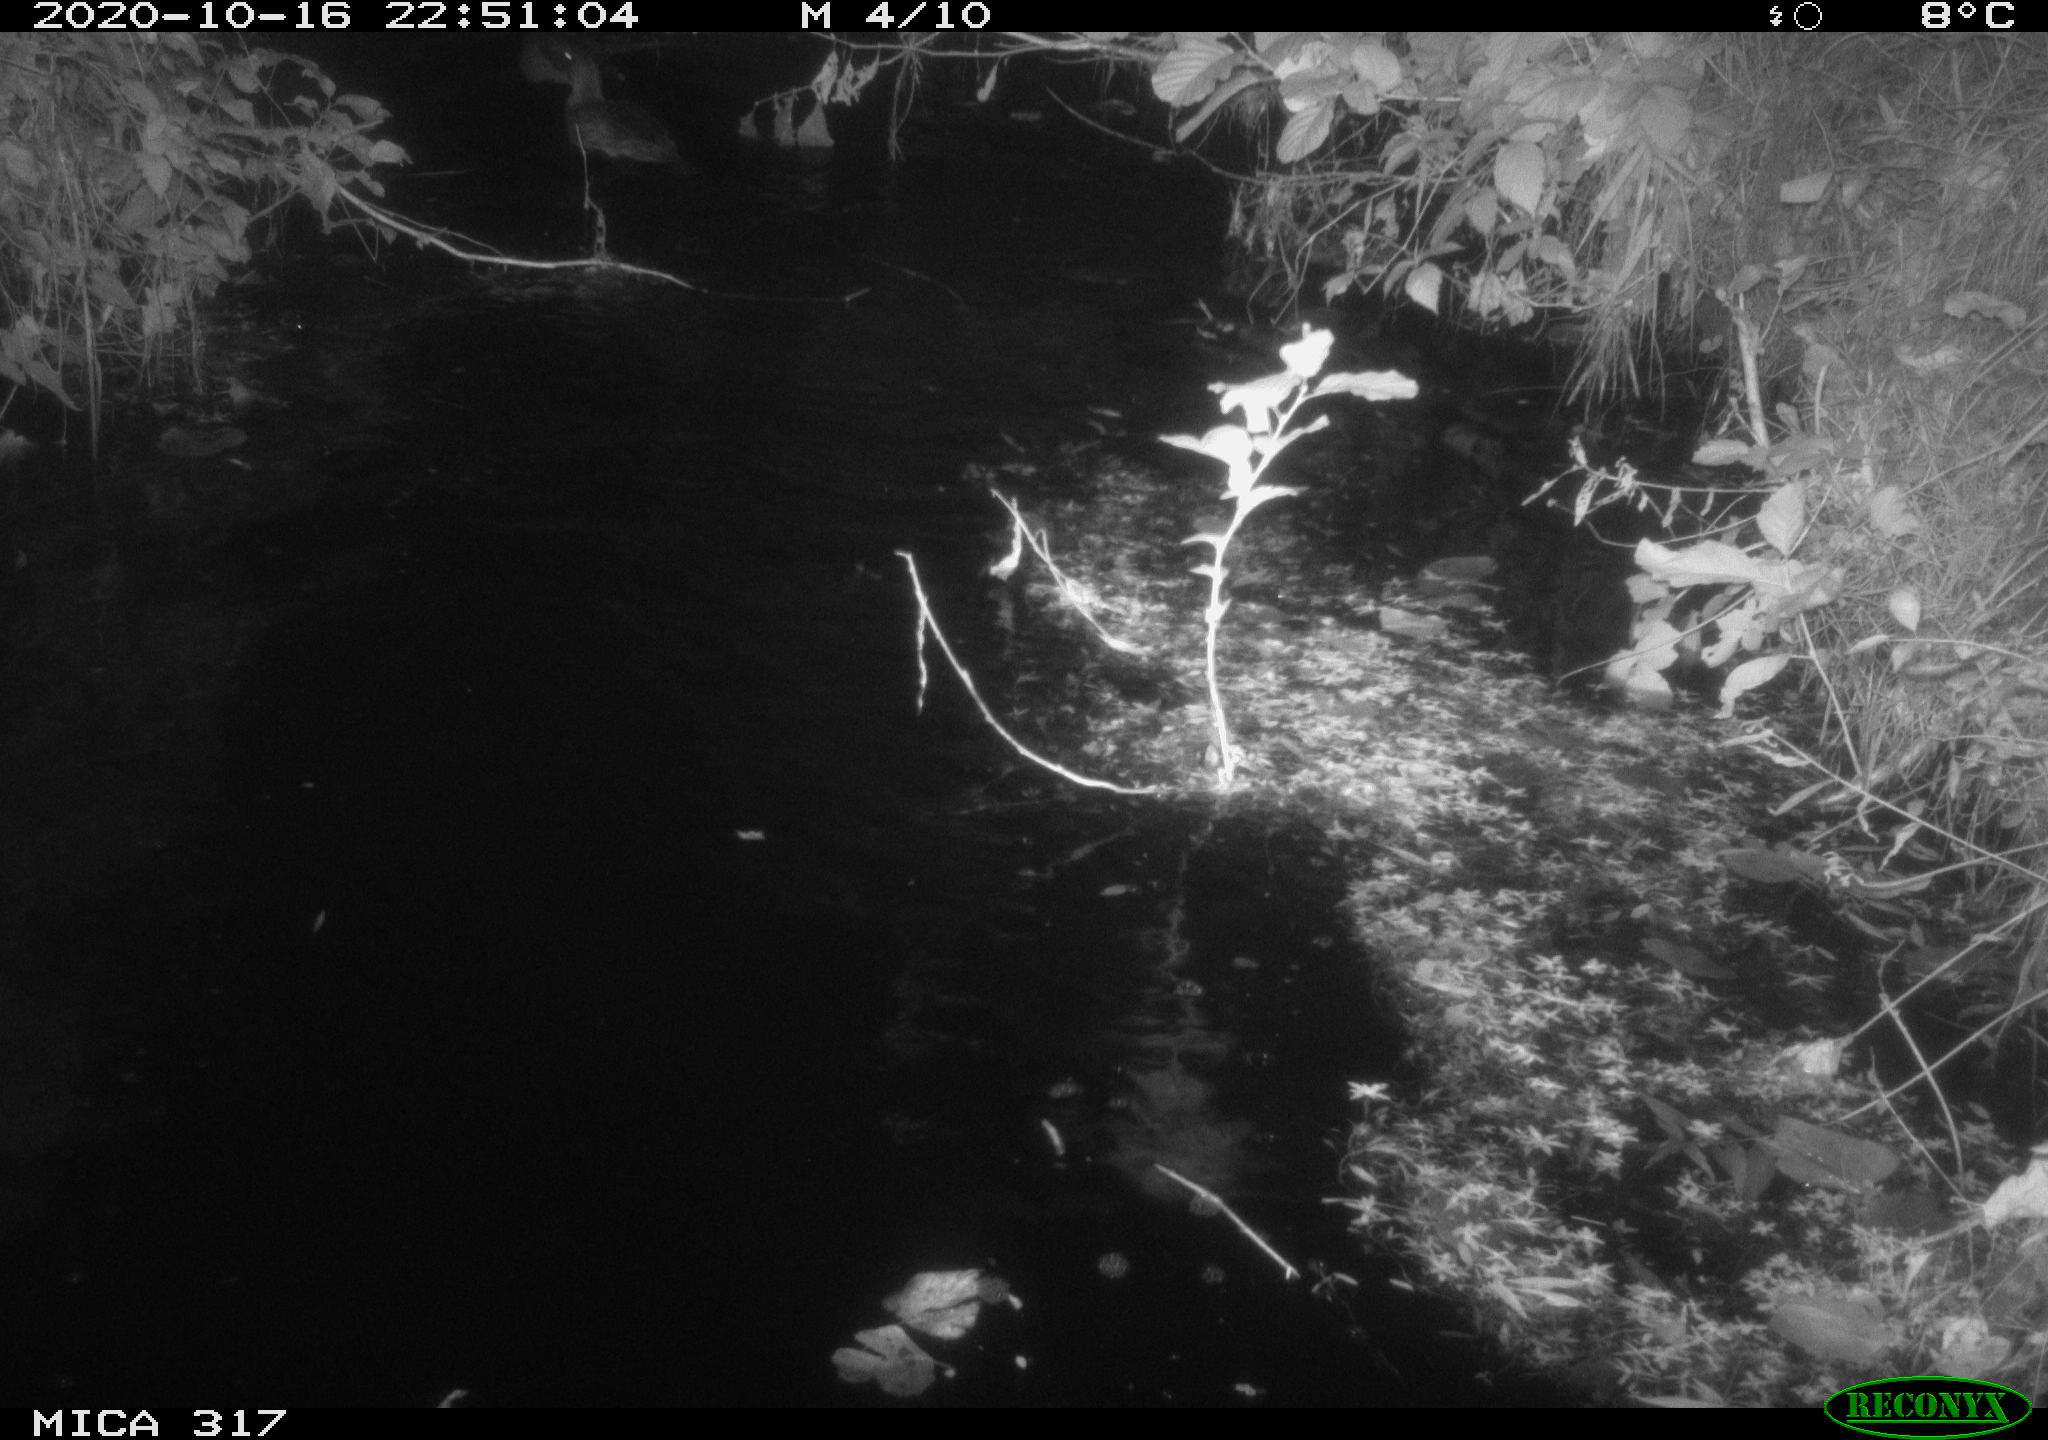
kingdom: Animalia
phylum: Chordata
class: Aves
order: Anseriformes
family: Anatidae
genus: Anas
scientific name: Anas platyrhynchos
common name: Mallard
